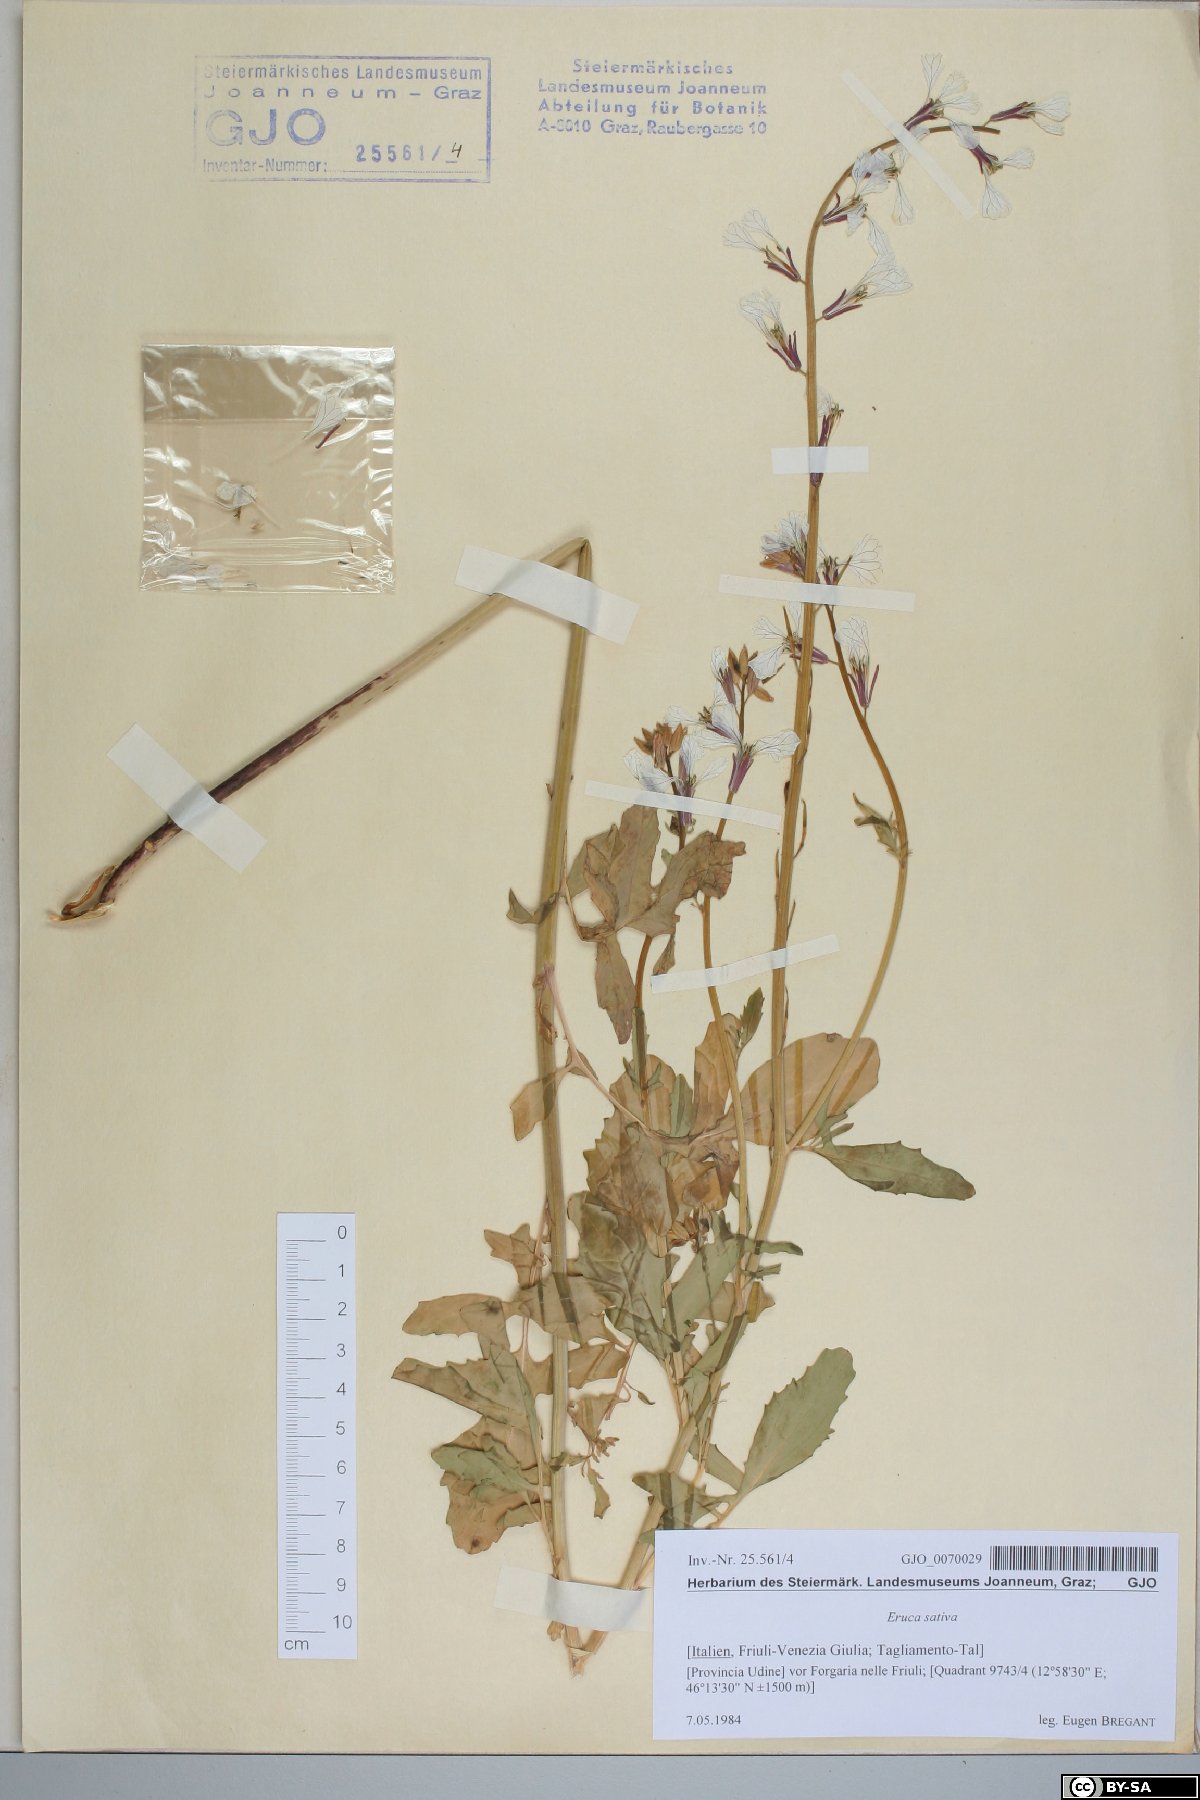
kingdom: Plantae
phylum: Tracheophyta
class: Magnoliopsida
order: Brassicales
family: Brassicaceae
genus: Eruca
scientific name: Eruca vesicaria
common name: Garden rocket
